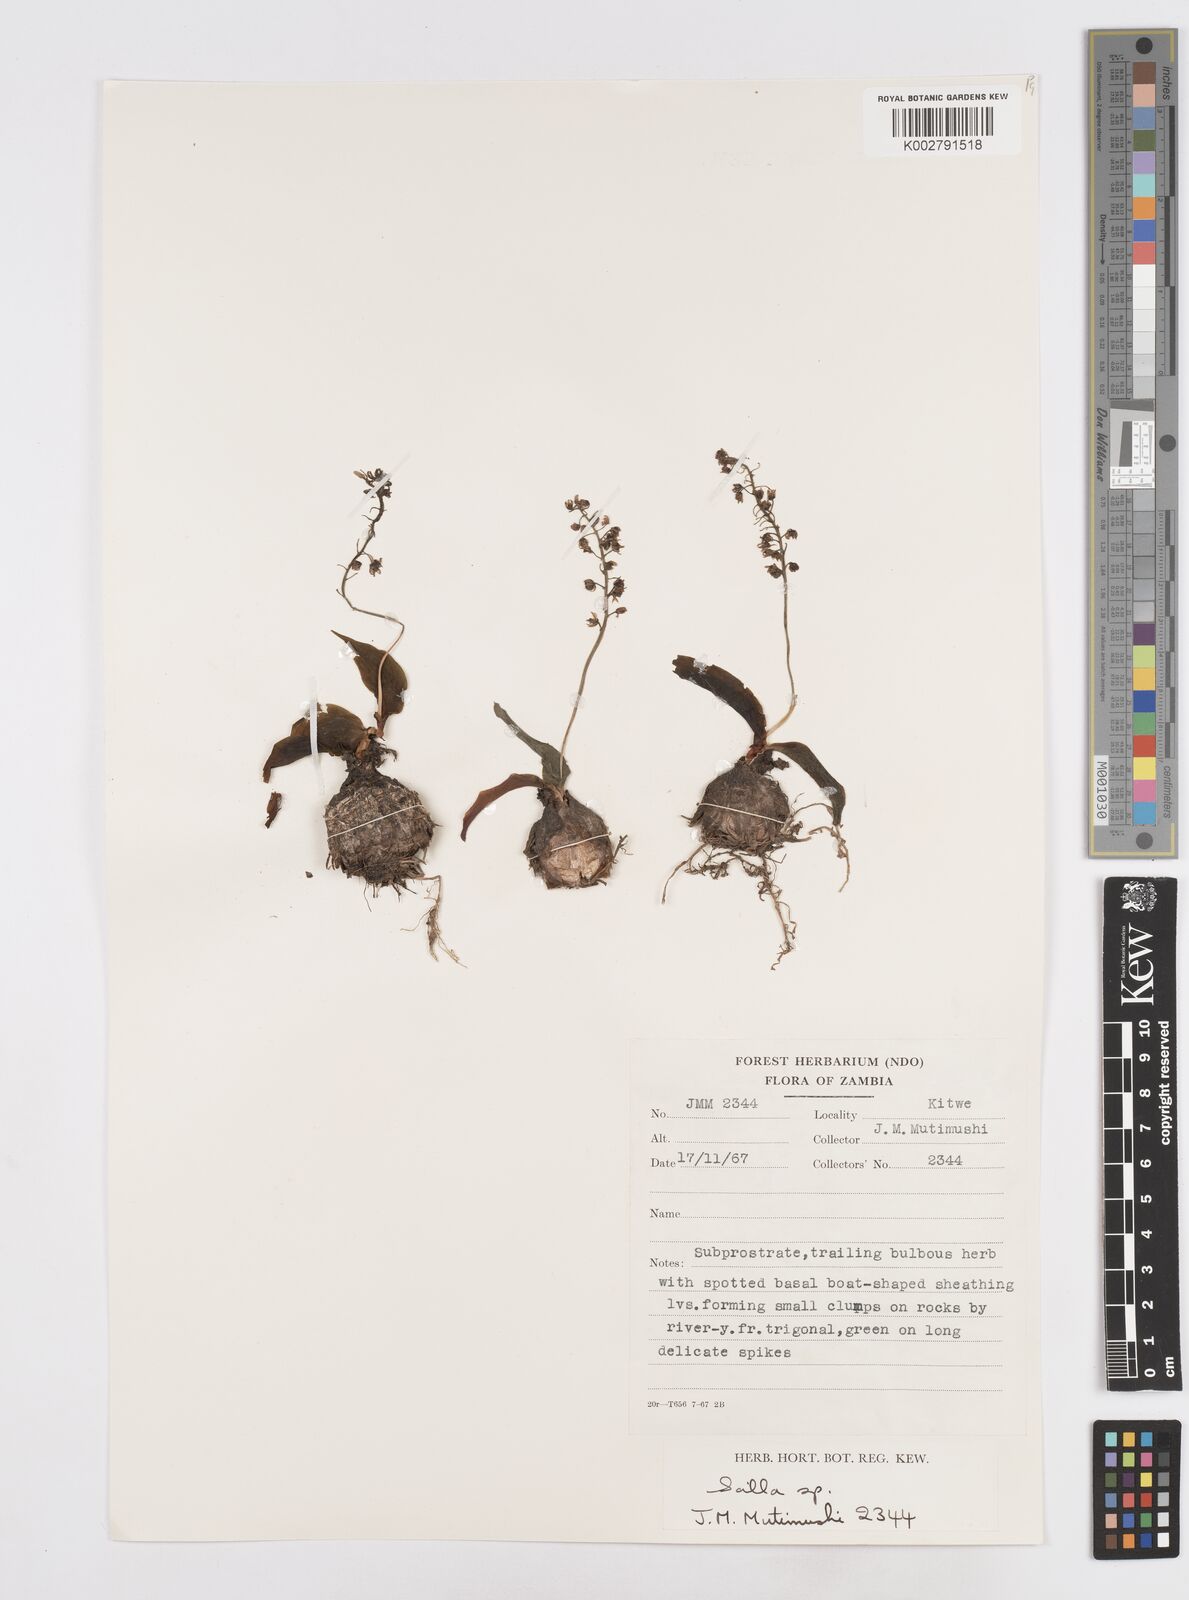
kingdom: Plantae
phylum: Tracheophyta
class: Liliopsida
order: Asparagales
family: Asparagaceae
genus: Scilla
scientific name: Scilla
